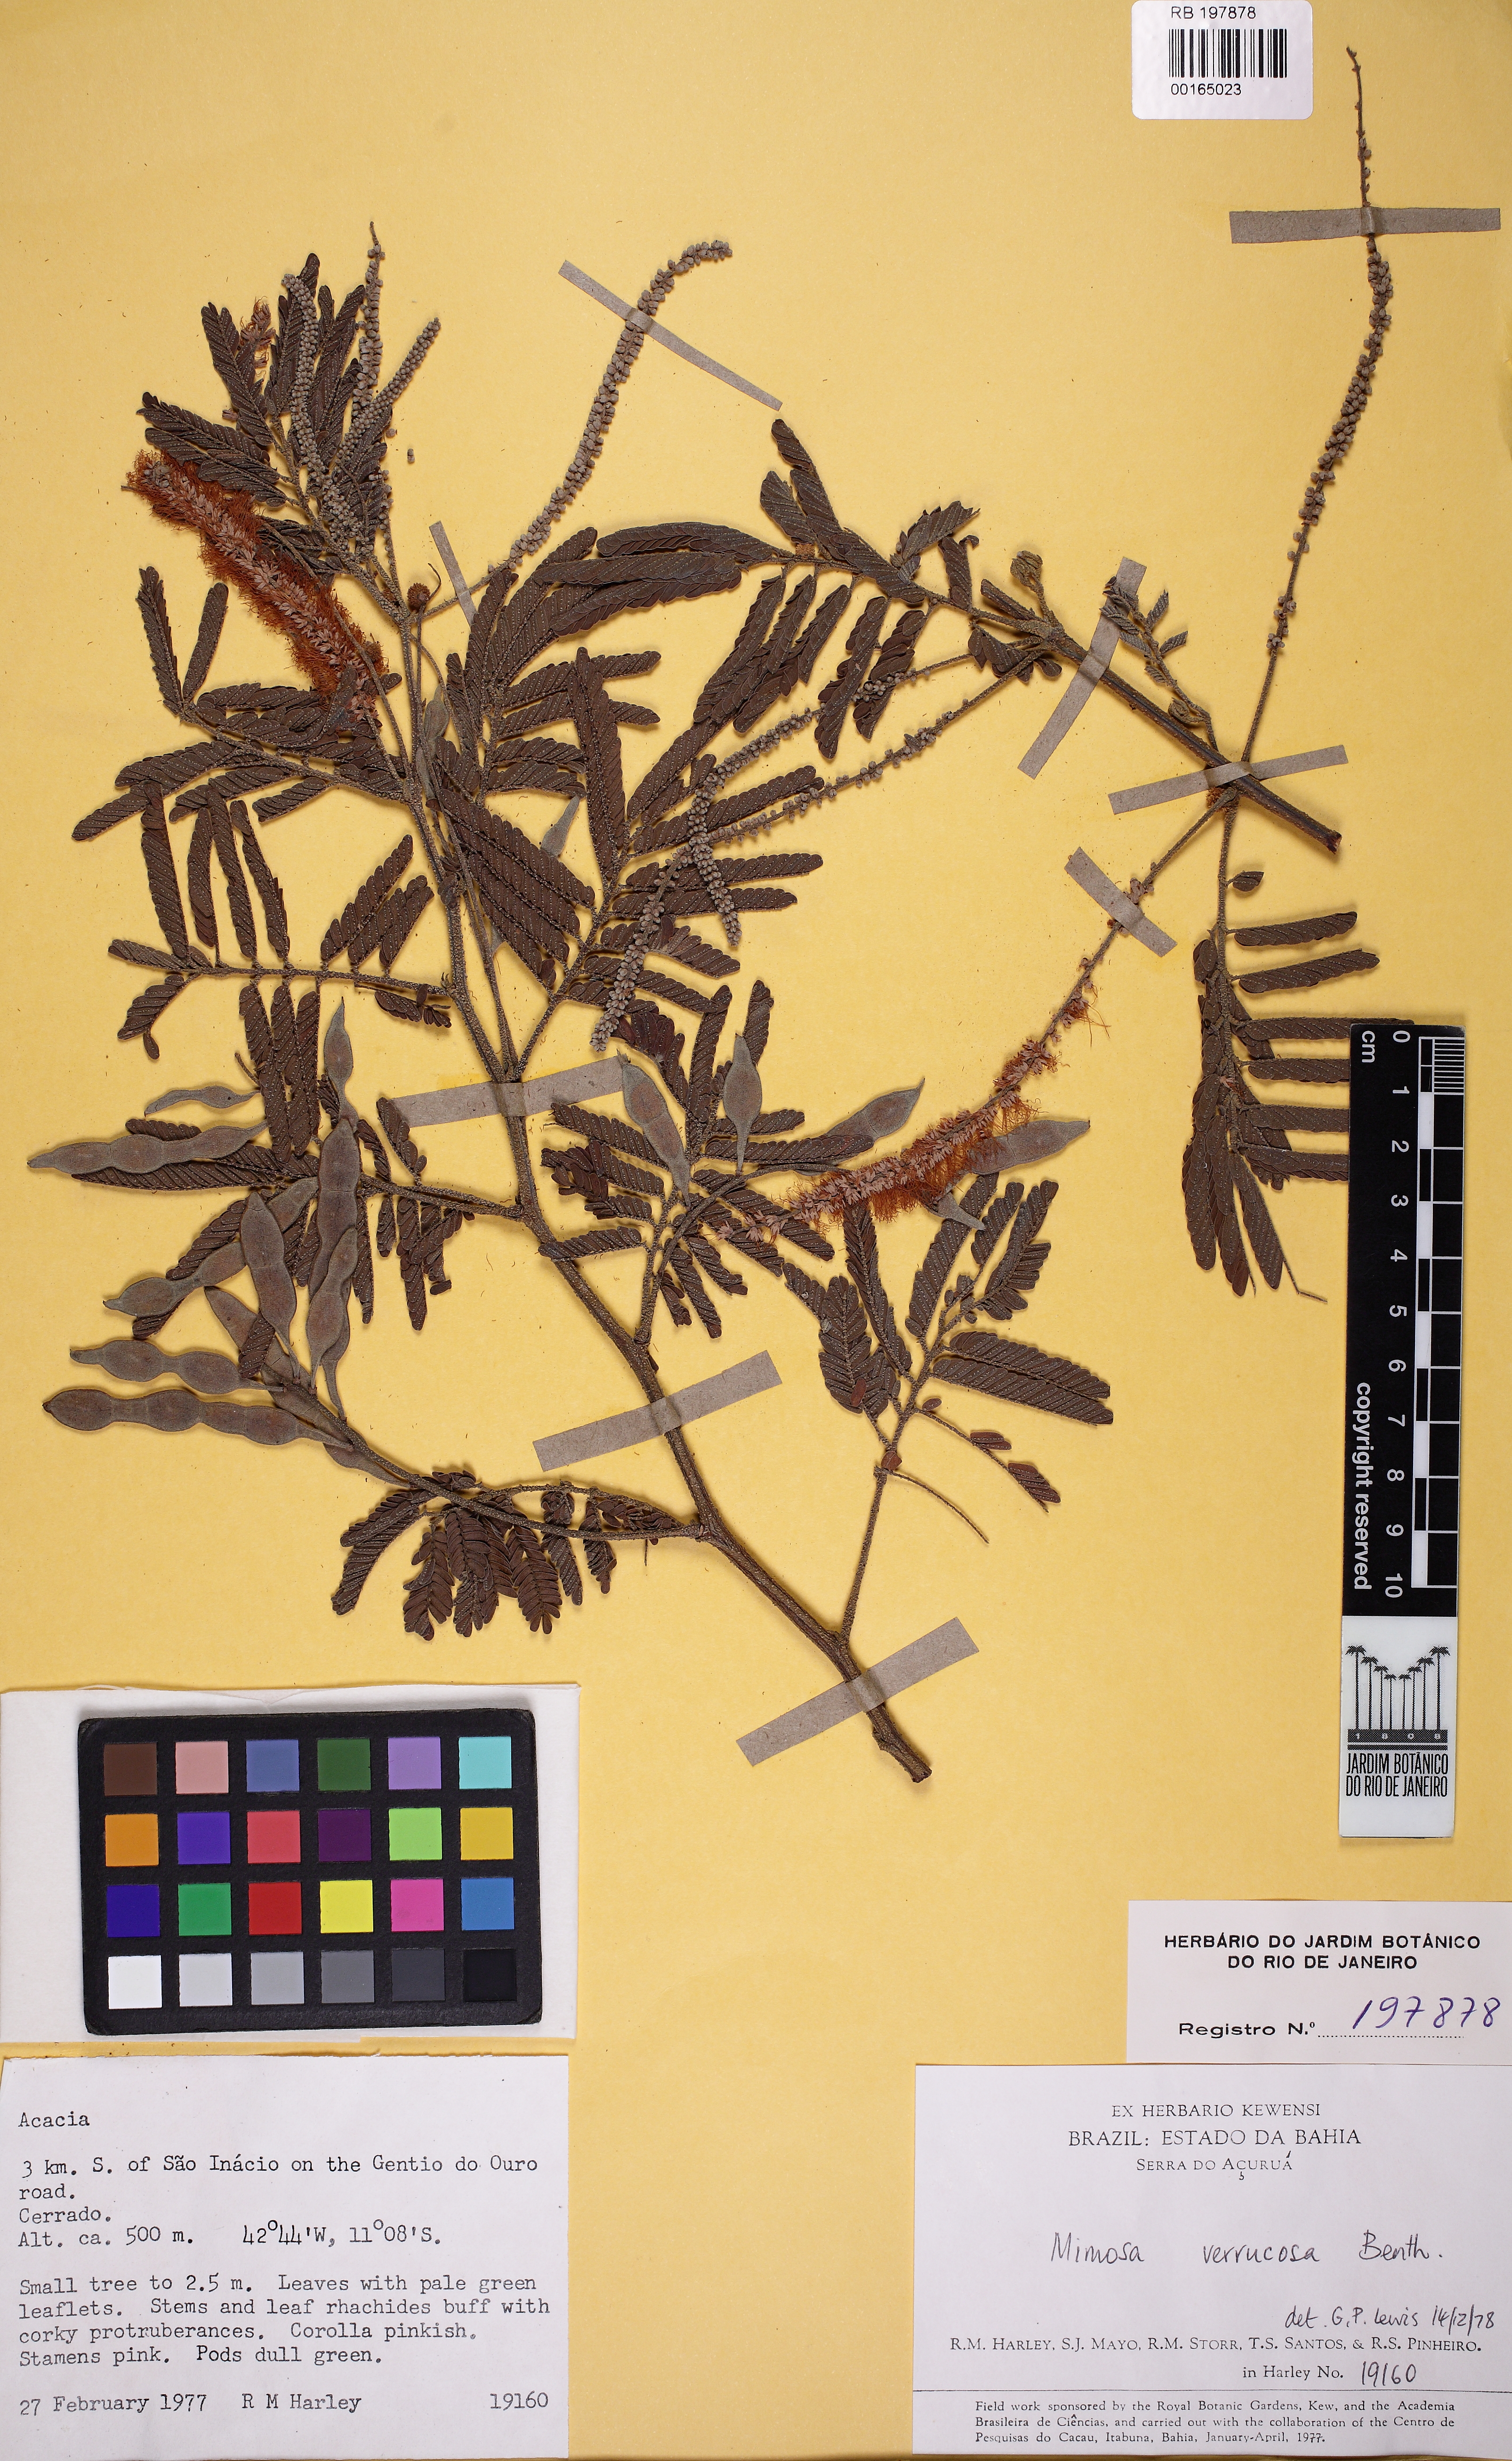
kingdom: Plantae
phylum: Tracheophyta
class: Magnoliopsida
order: Fabales
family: Fabaceae
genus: Mimosa
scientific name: Mimosa verrucosa
